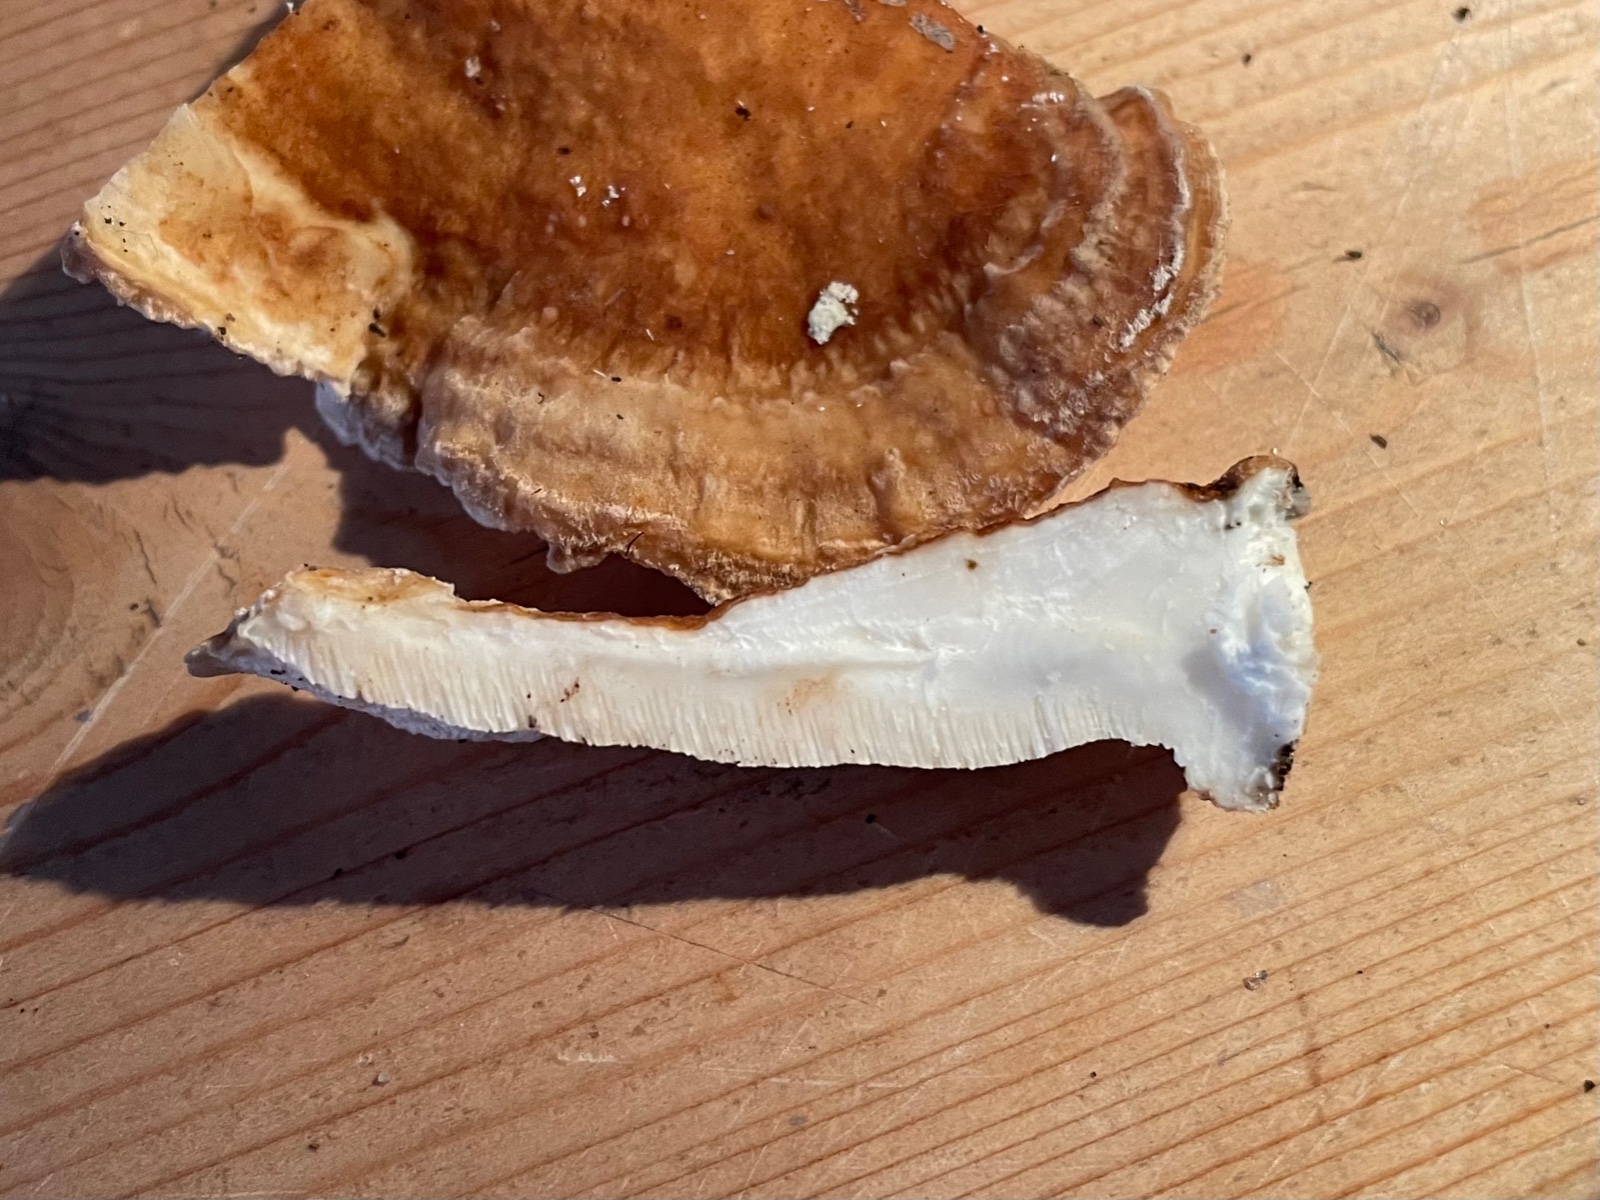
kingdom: Fungi
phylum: Basidiomycota
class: Agaricomycetes
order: Polyporales
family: Polyporaceae
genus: Trametes
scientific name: Trametes ochracea
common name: bæltet læderporesvamp
